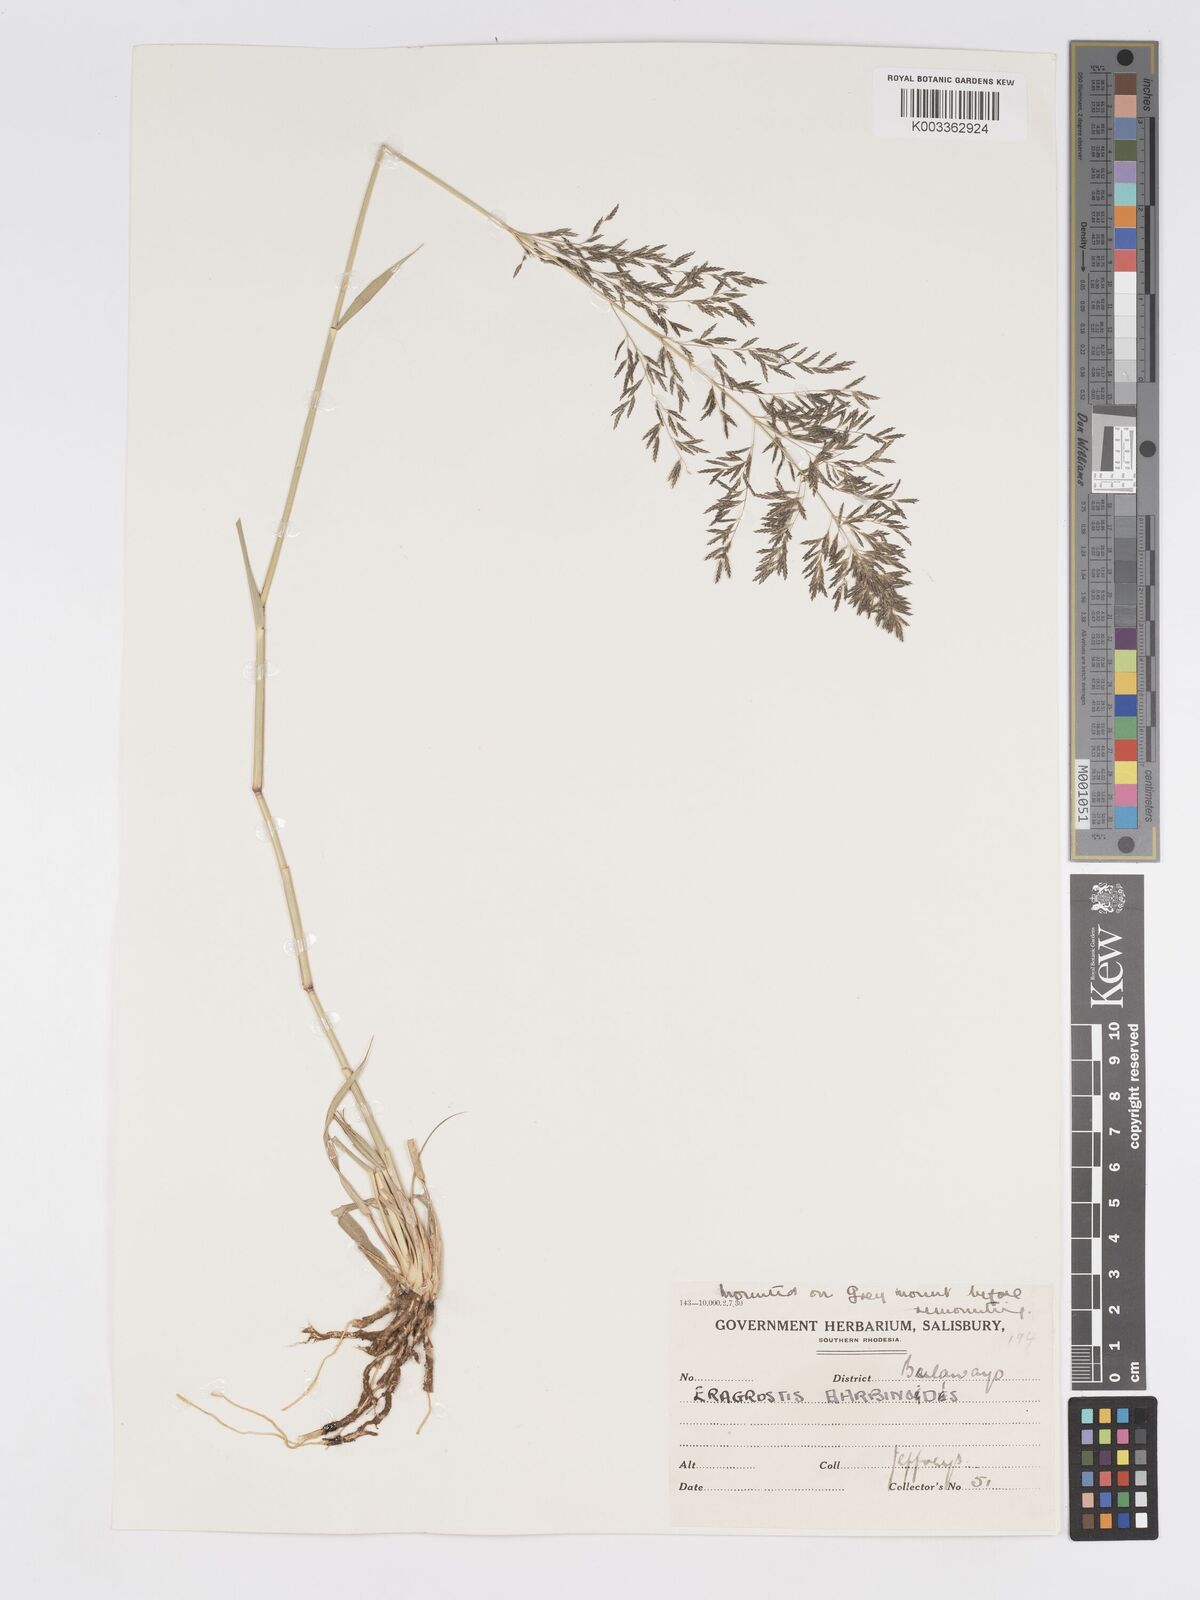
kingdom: Plantae
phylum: Tracheophyta
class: Liliopsida
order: Poales
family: Poaceae
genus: Eragrostis
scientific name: Eragrostis cylindriflora
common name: Cylinderflower lovegrass
